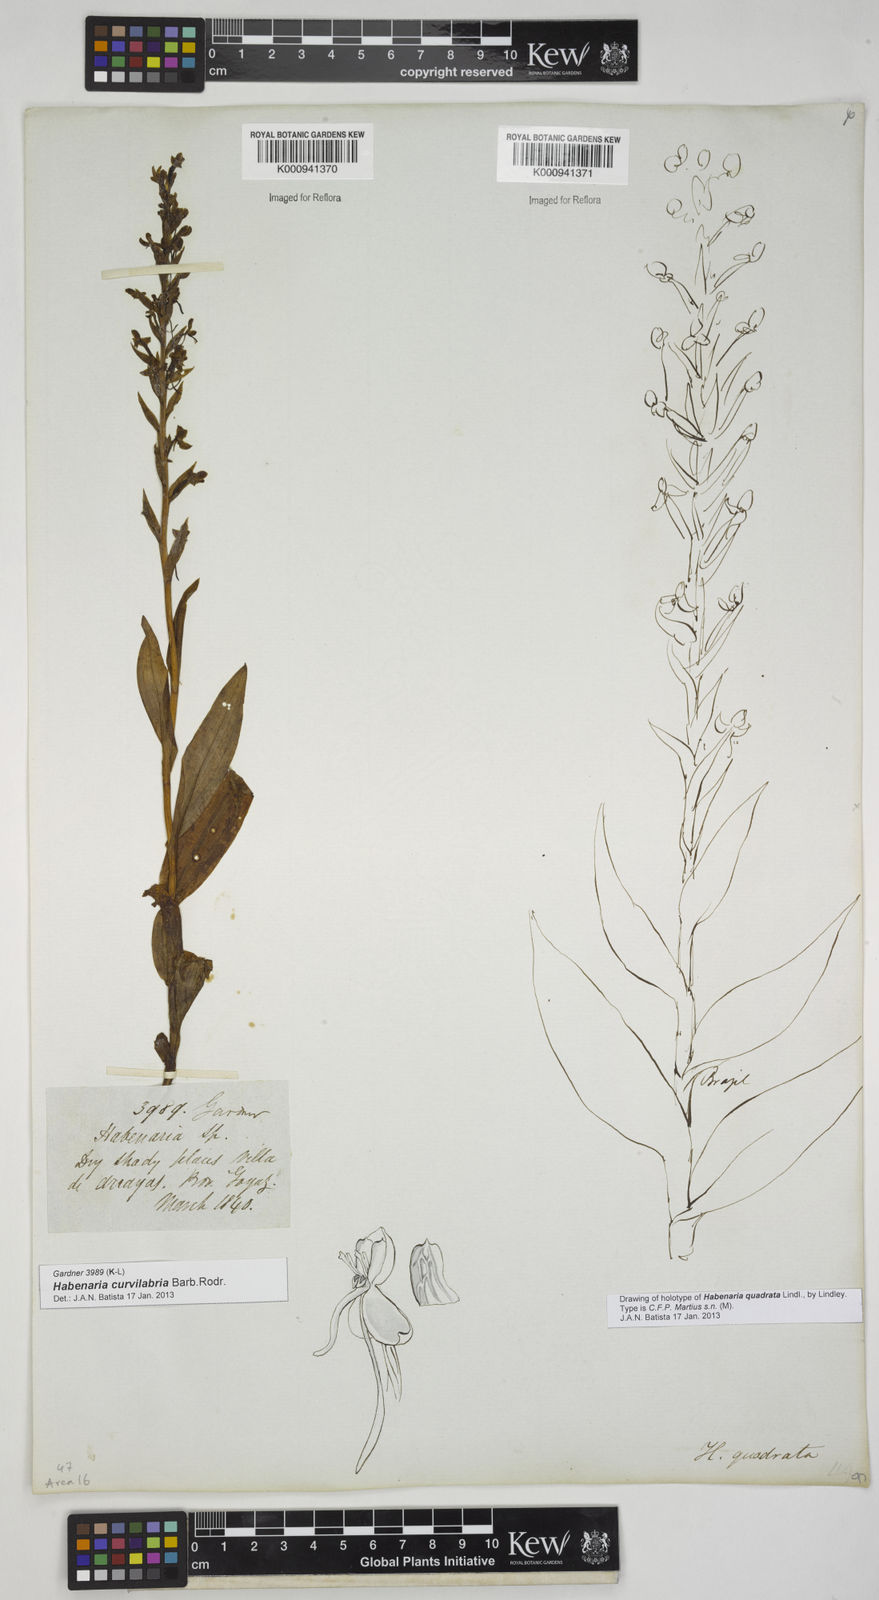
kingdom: Plantae
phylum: Tracheophyta
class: Liliopsida
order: Asparagales
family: Orchidaceae
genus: Habenaria
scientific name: Habenaria curvilabra
